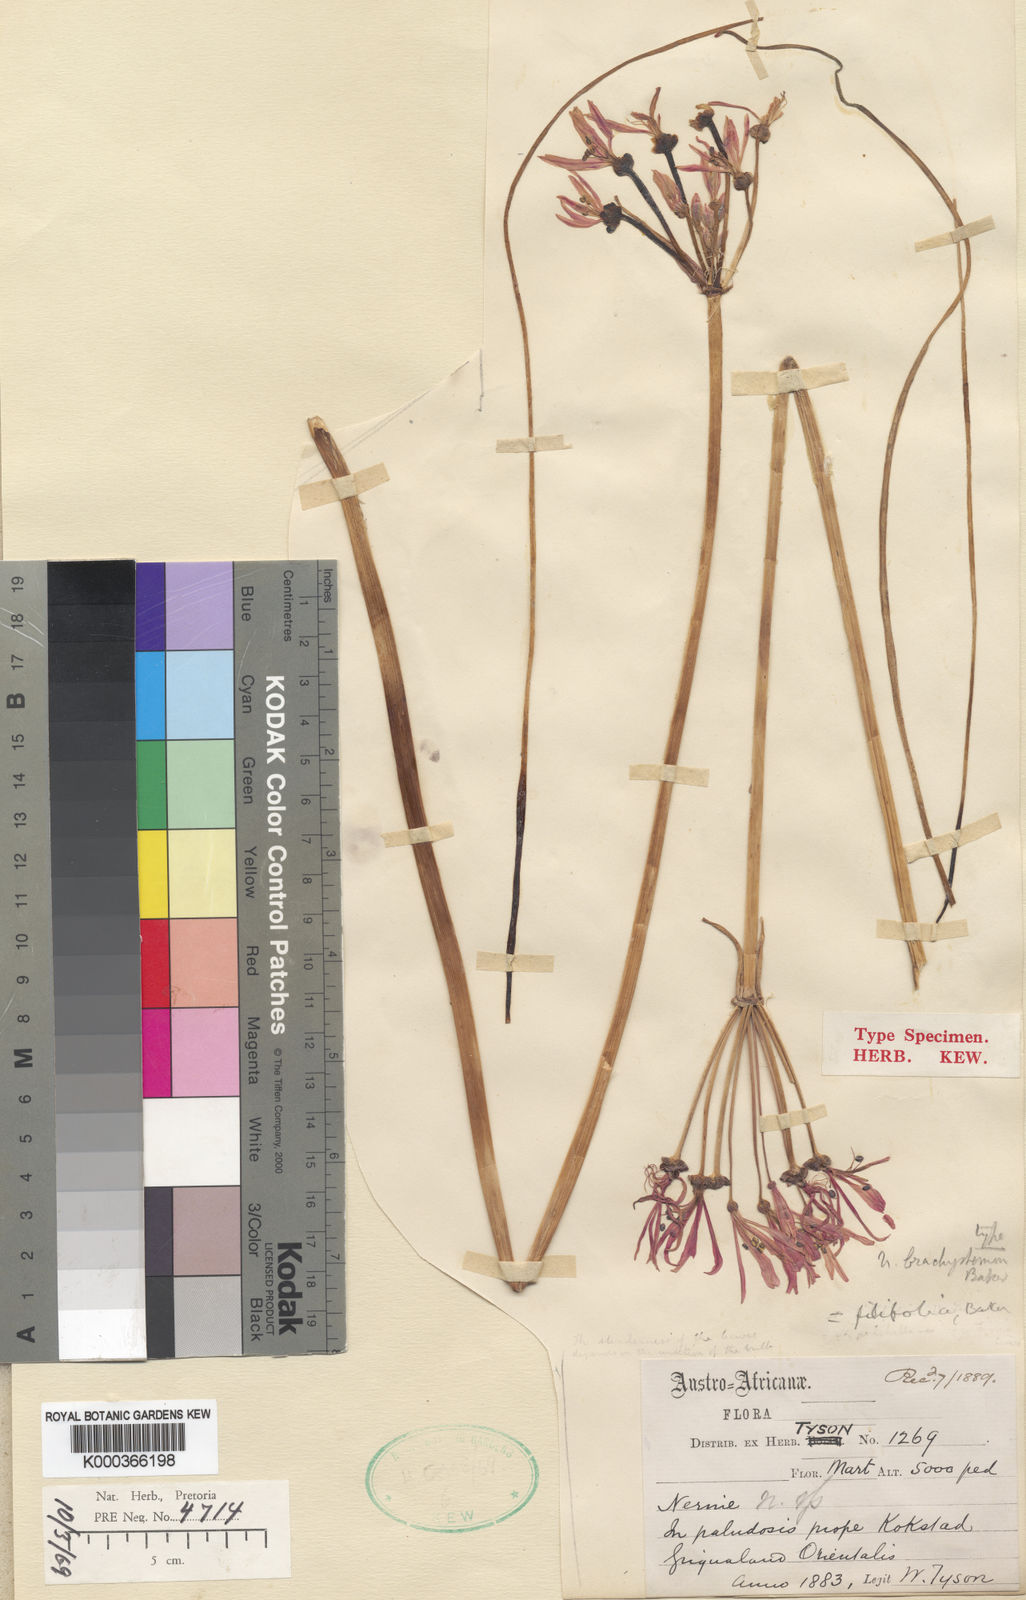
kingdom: Plantae
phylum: Tracheophyta
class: Liliopsida
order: Asparagales
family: Amaryllidaceae
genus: Nerine
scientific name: Nerine appendiculata
